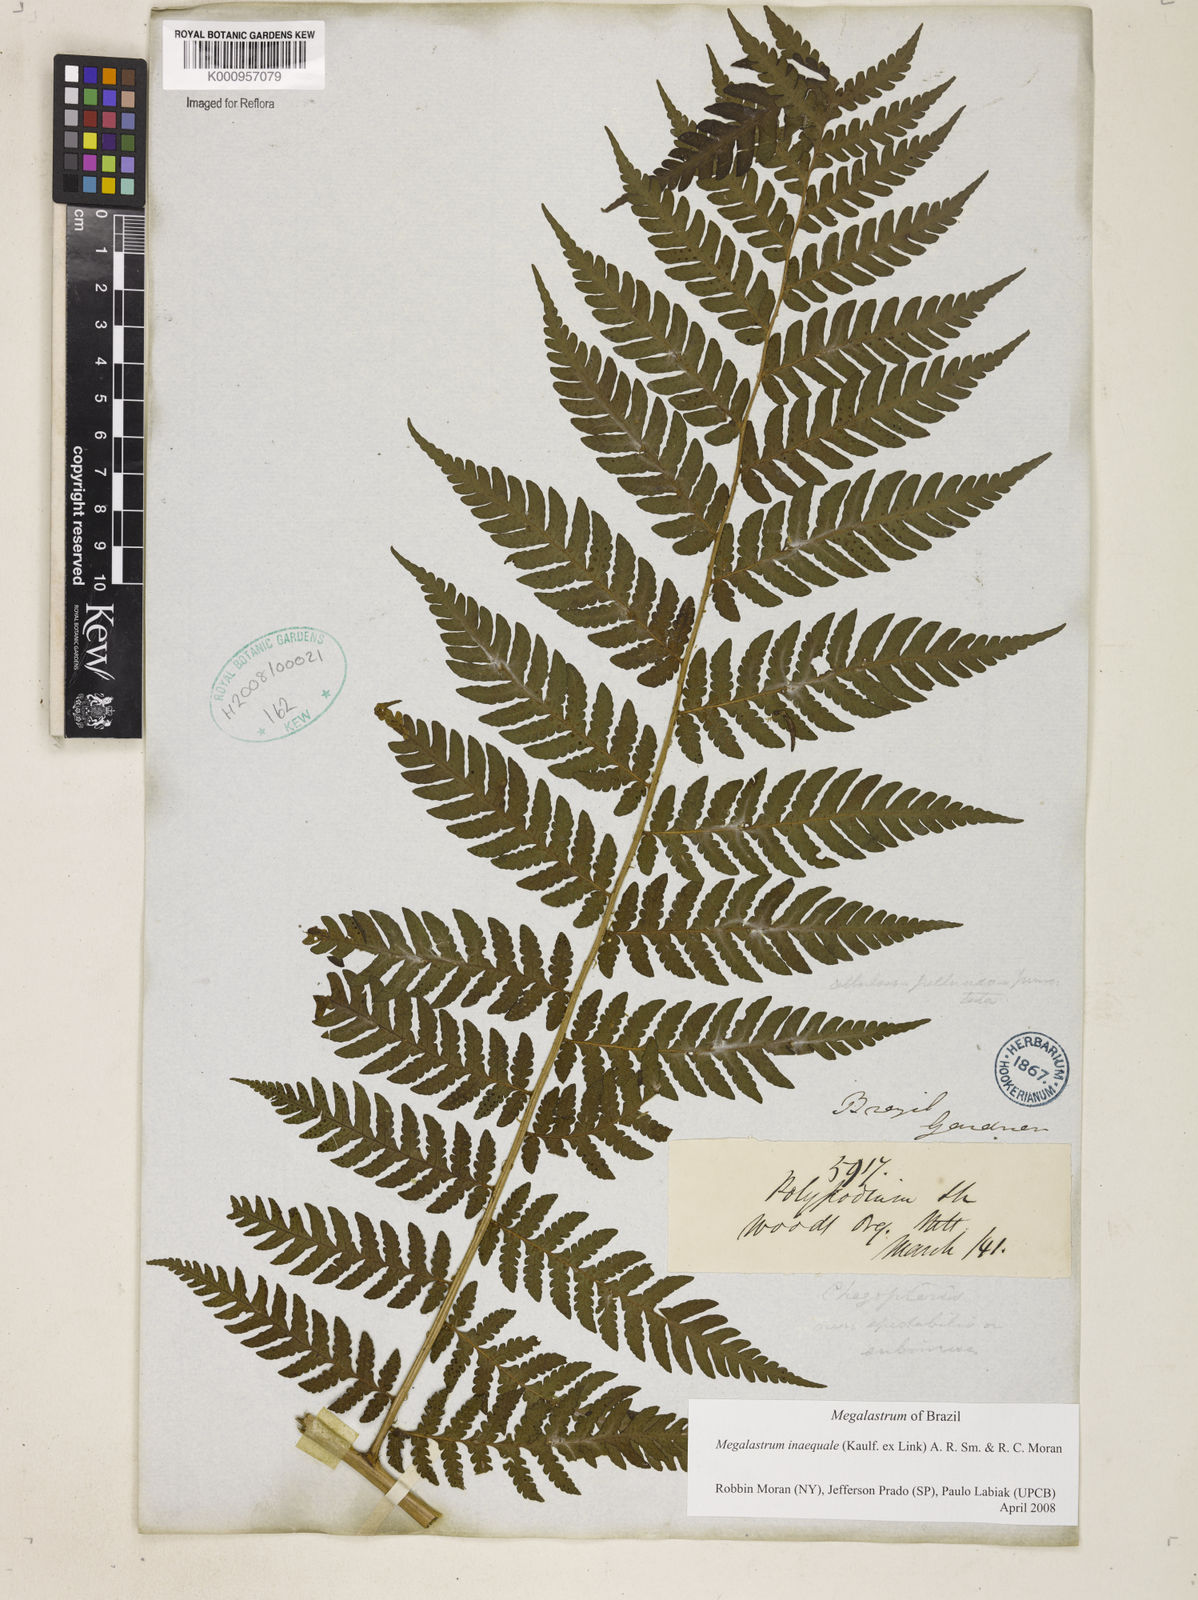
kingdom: Plantae
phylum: Tracheophyta
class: Polypodiopsida
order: Polypodiales
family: Dryopteridaceae
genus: Megalastrum
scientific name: Megalastrum inaequale
